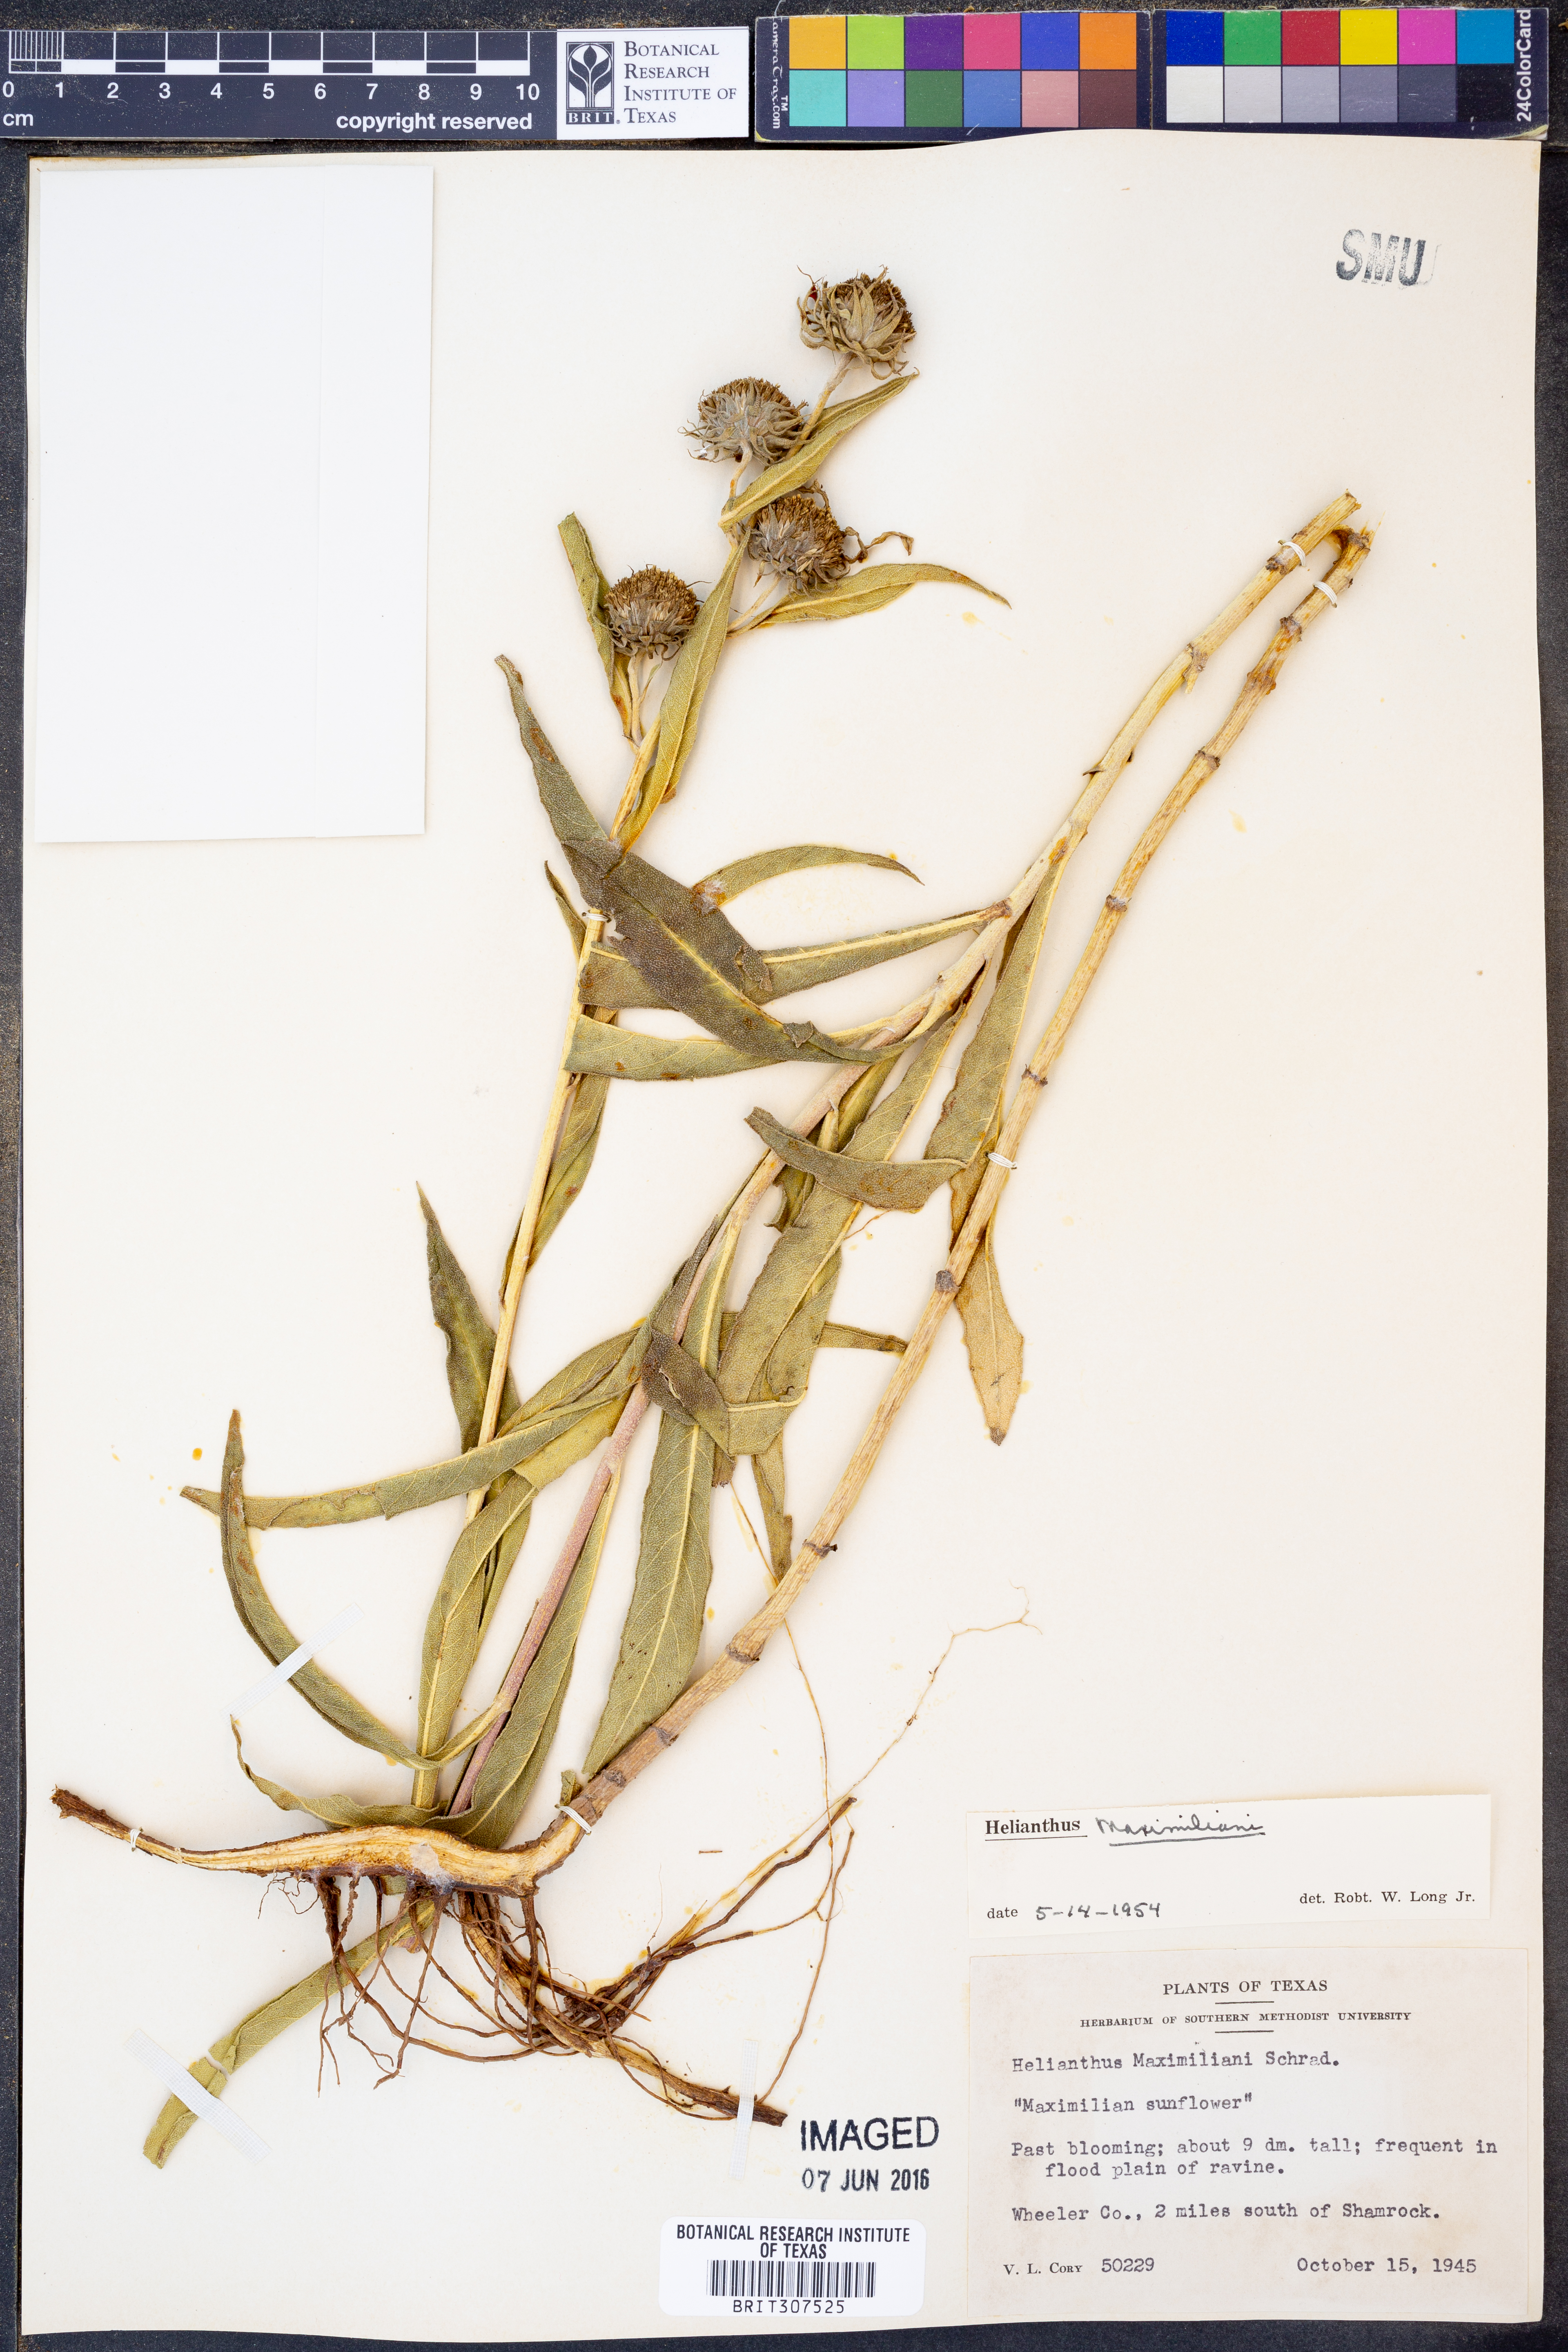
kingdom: Plantae
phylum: Tracheophyta
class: Magnoliopsida
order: Asterales
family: Asteraceae
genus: Helianthus
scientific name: Helianthus maximiliani
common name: Maximilian's sunflower
